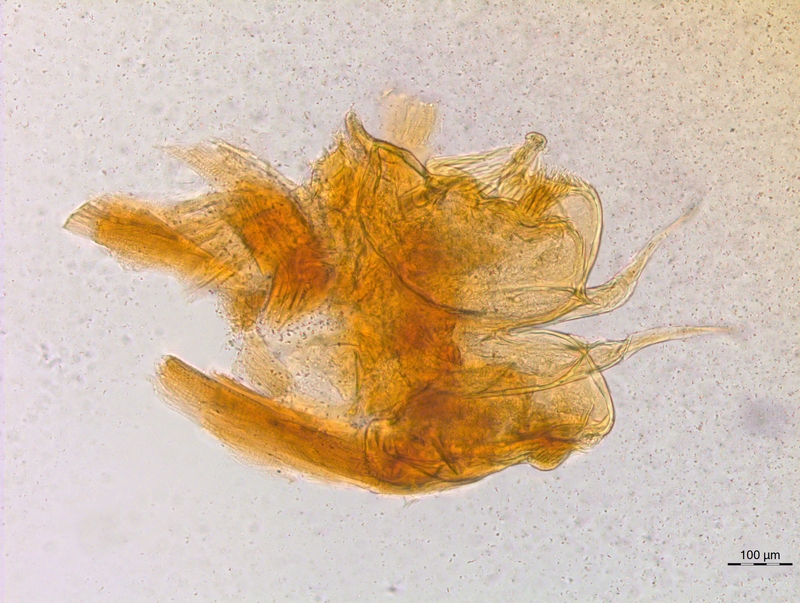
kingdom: Animalia
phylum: Arthropoda
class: Diplopoda
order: Chordeumatida
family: Craspedosomatidae
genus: Craspedosoma
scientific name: Craspedosoma rawlinsii
